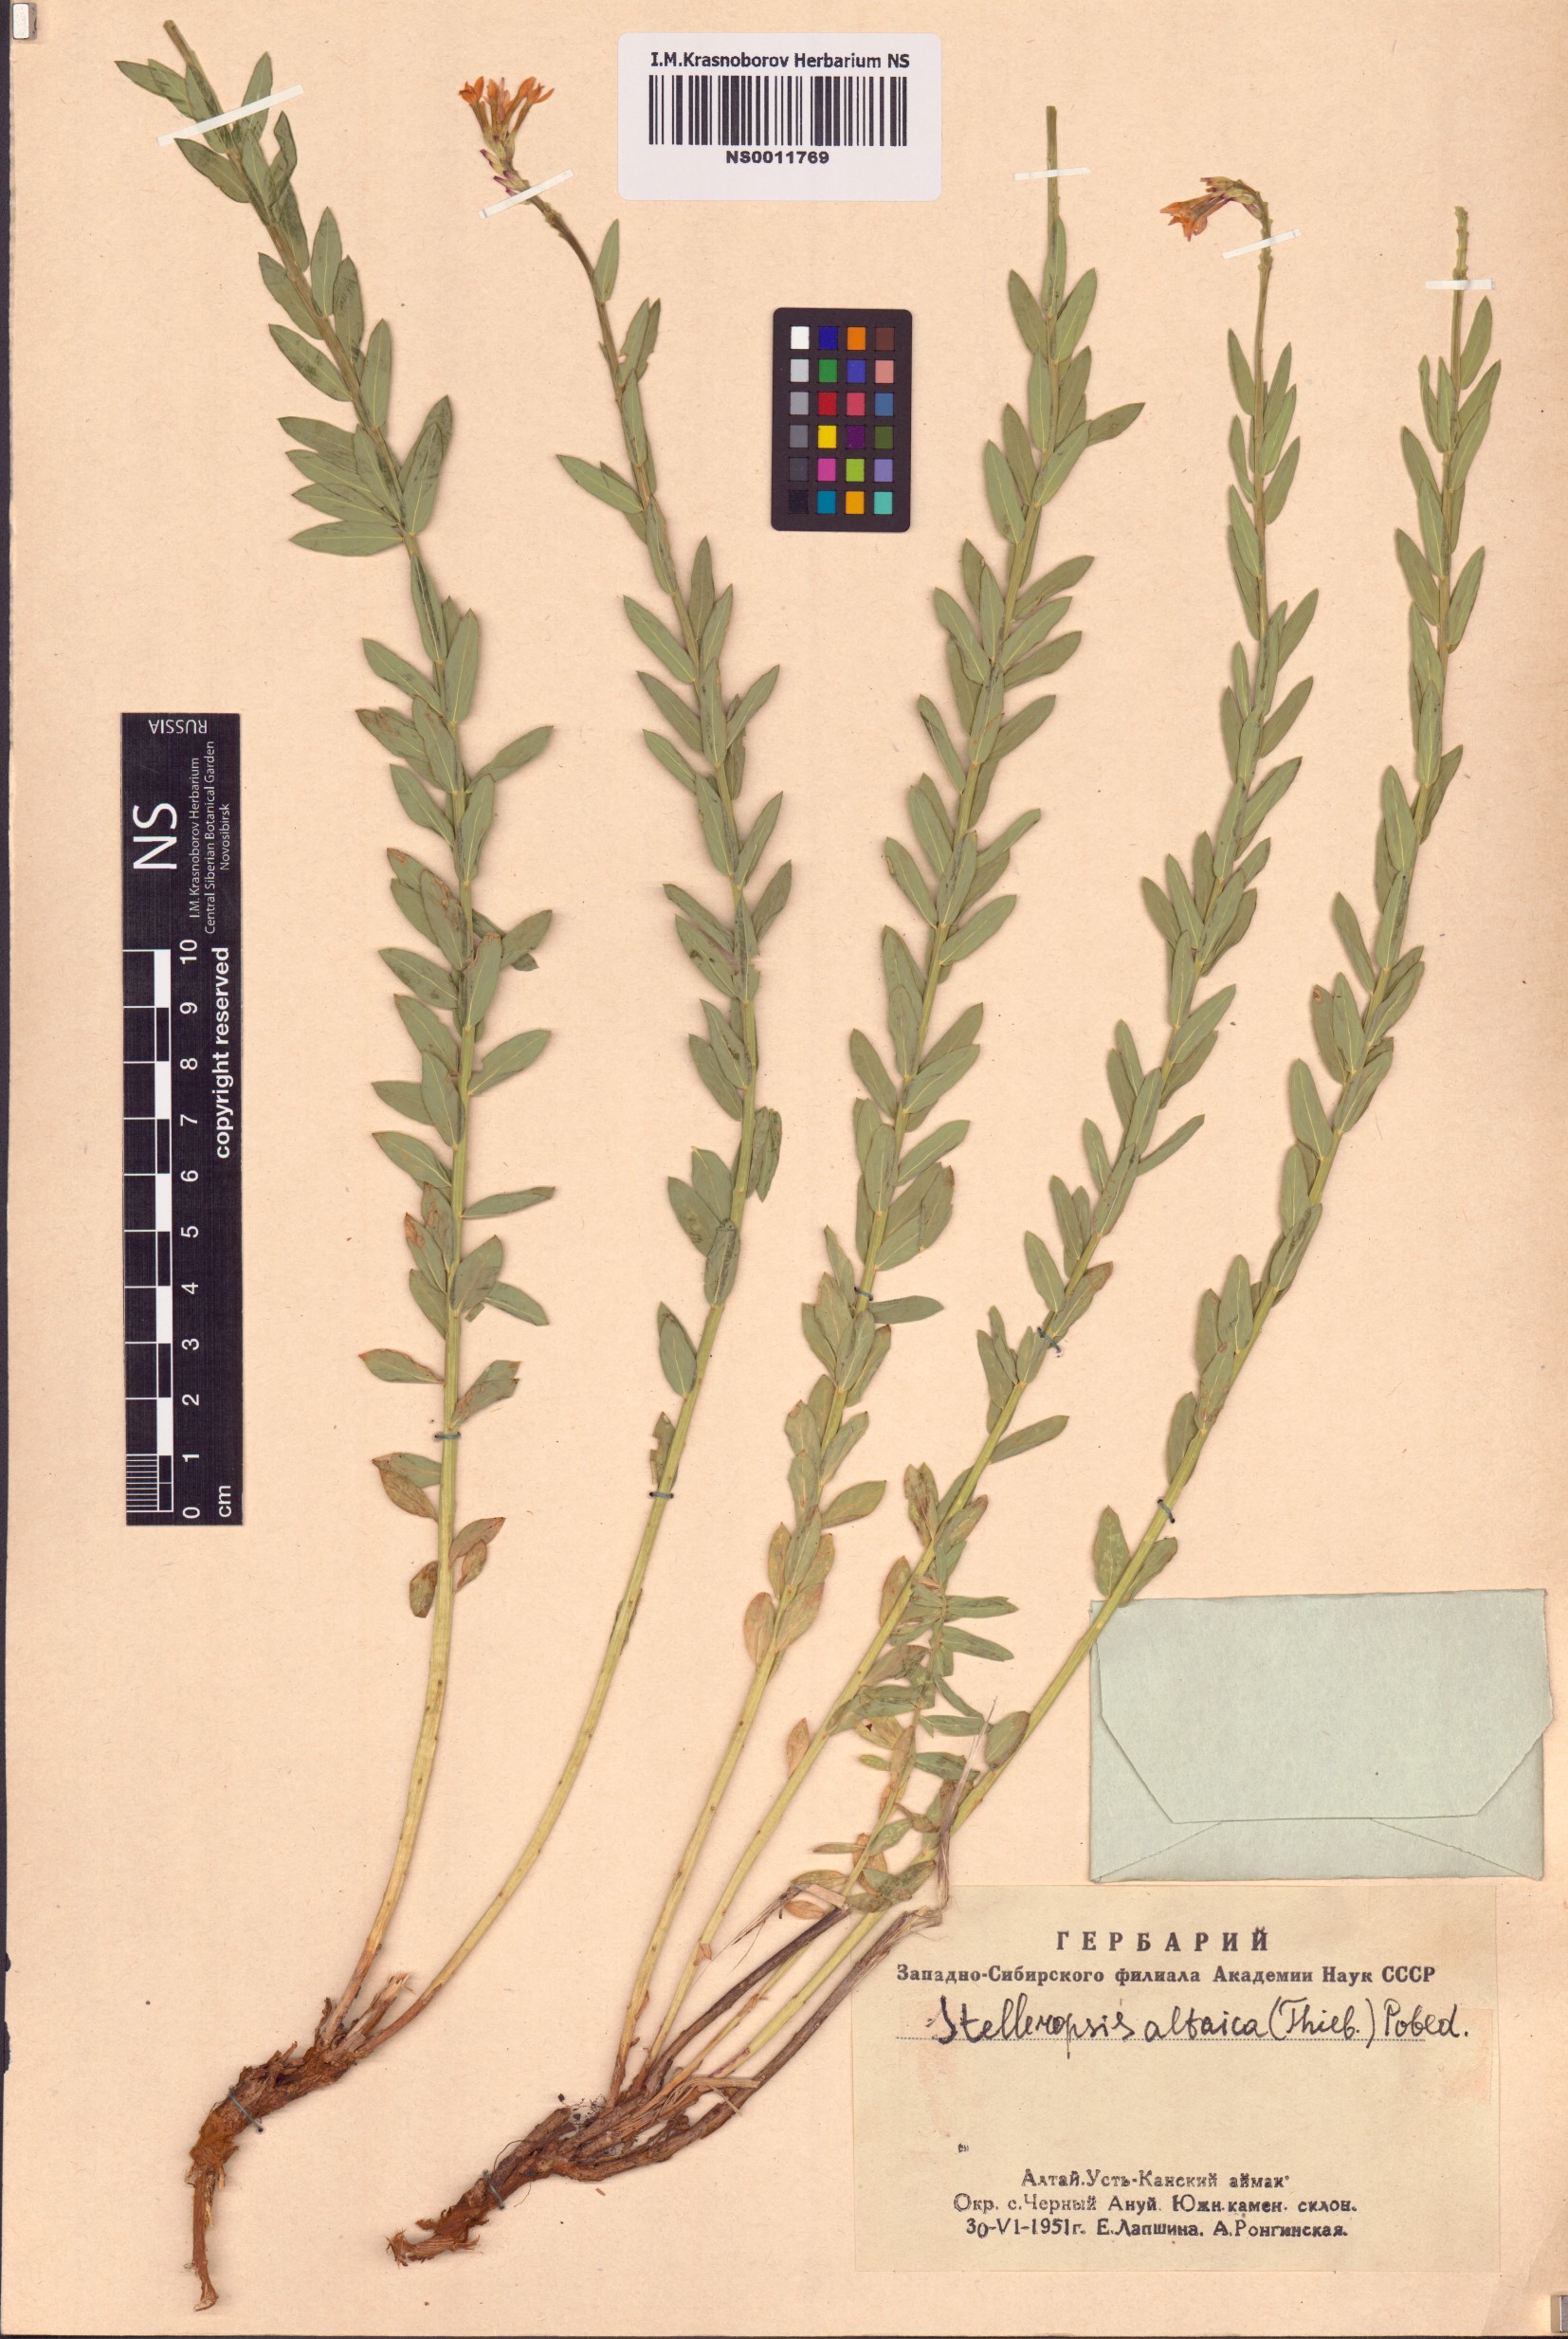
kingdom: Plantae
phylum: Tracheophyta
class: Magnoliopsida
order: Malvales
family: Thymelaeaceae
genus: Diarthron
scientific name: Diarthron altaicum
